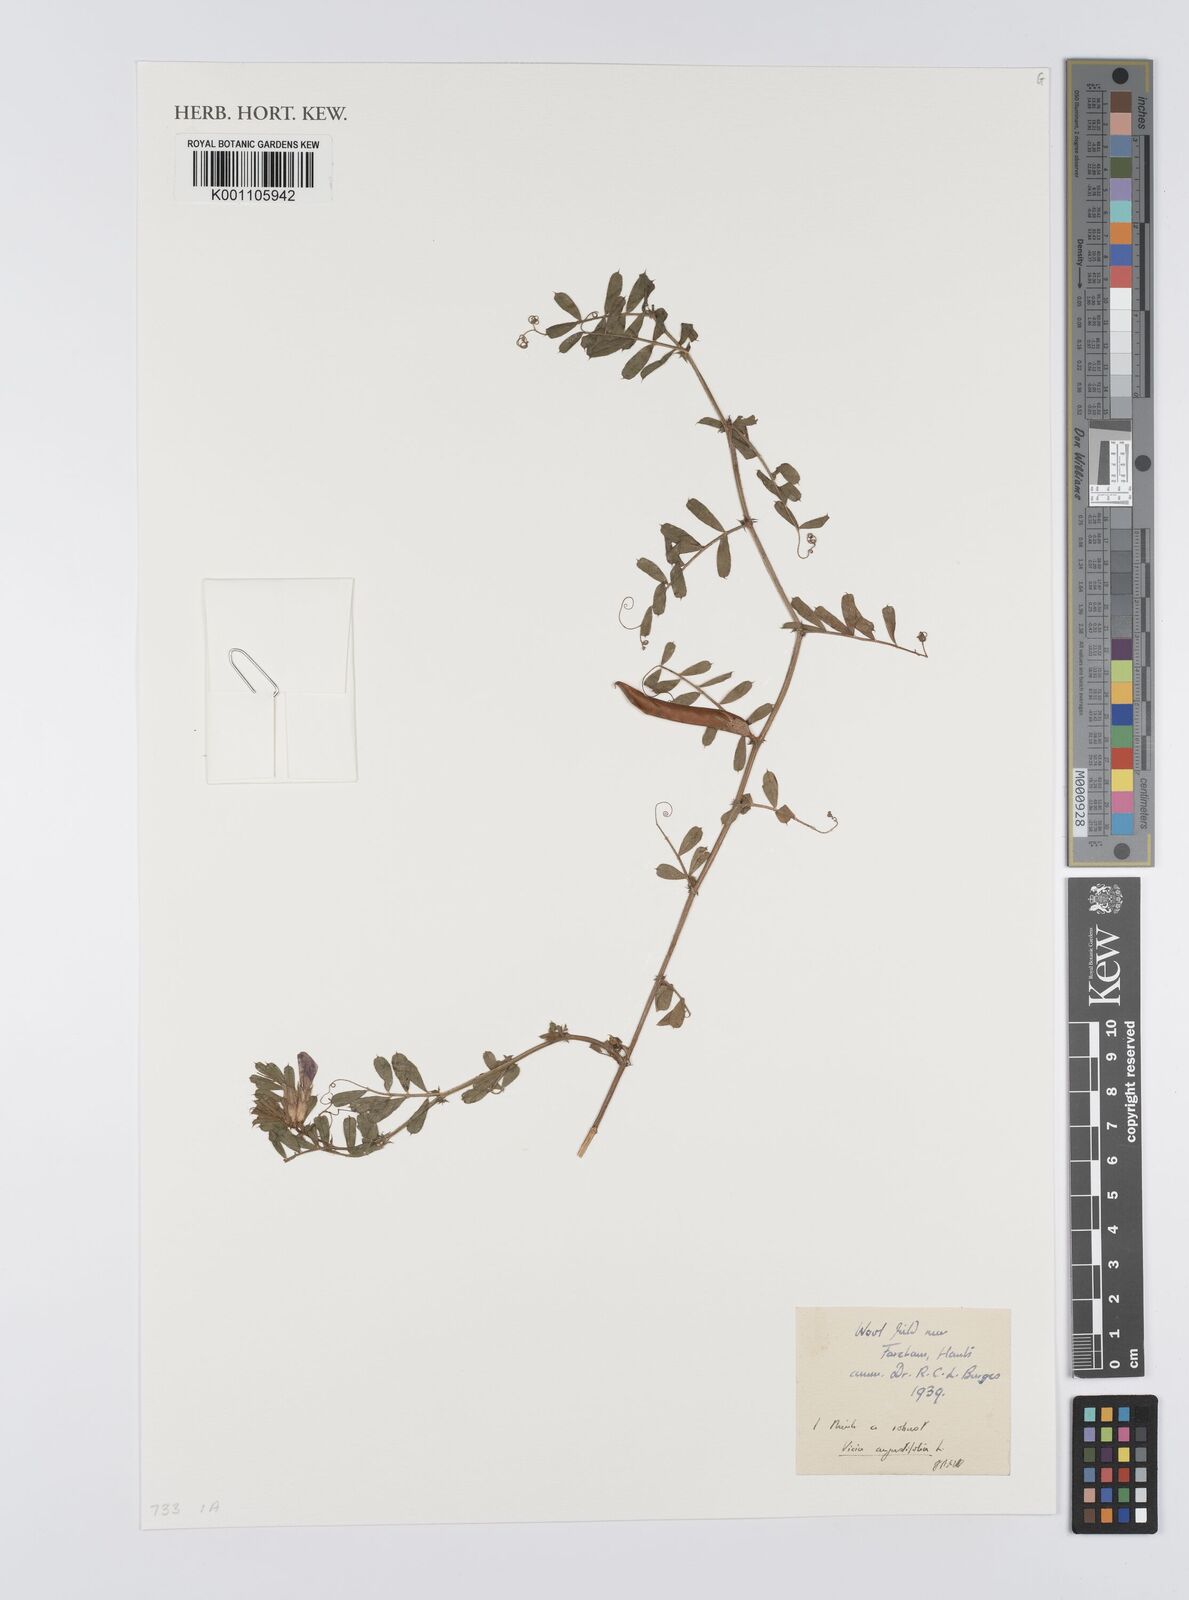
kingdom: Plantae
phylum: Tracheophyta
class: Magnoliopsida
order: Fabales
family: Fabaceae
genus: Vicia
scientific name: Vicia sativa
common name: Garden vetch
